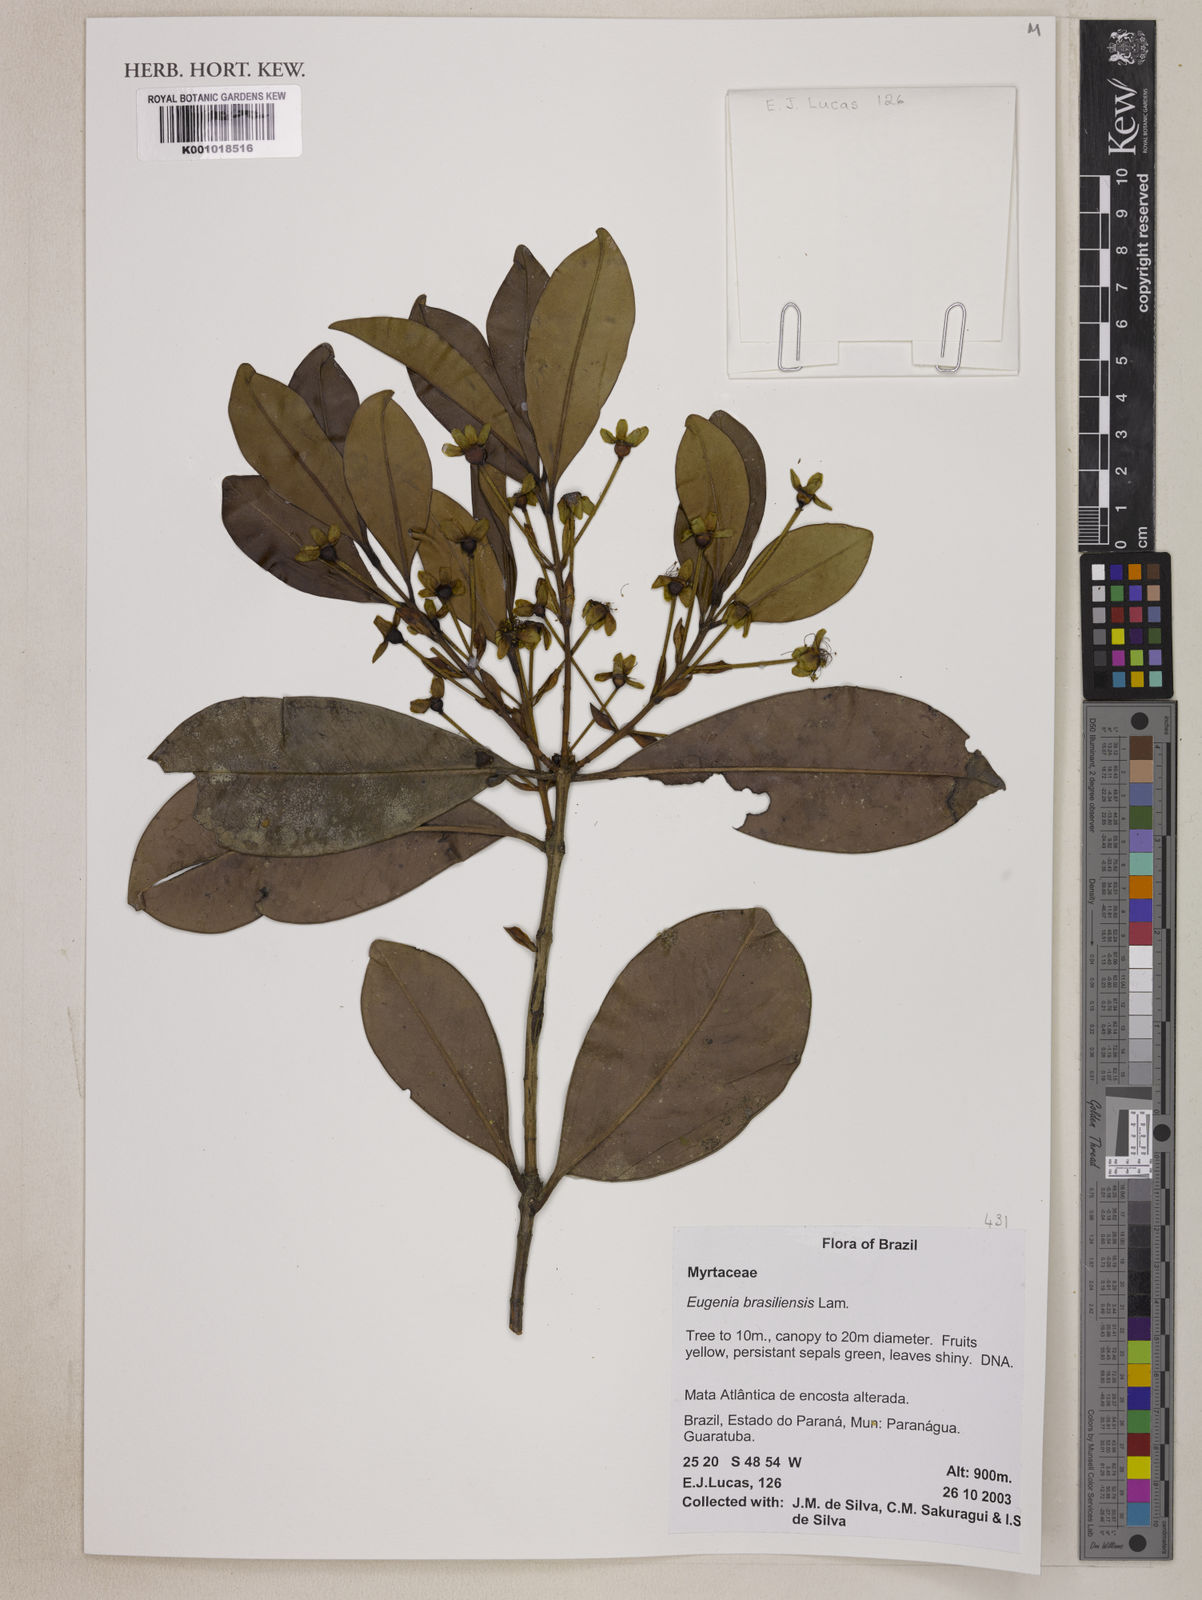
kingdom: Plantae
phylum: Tracheophyta
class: Magnoliopsida
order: Myrtales
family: Myrtaceae
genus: Eugenia
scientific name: Eugenia brasiliensis
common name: Grumichama
